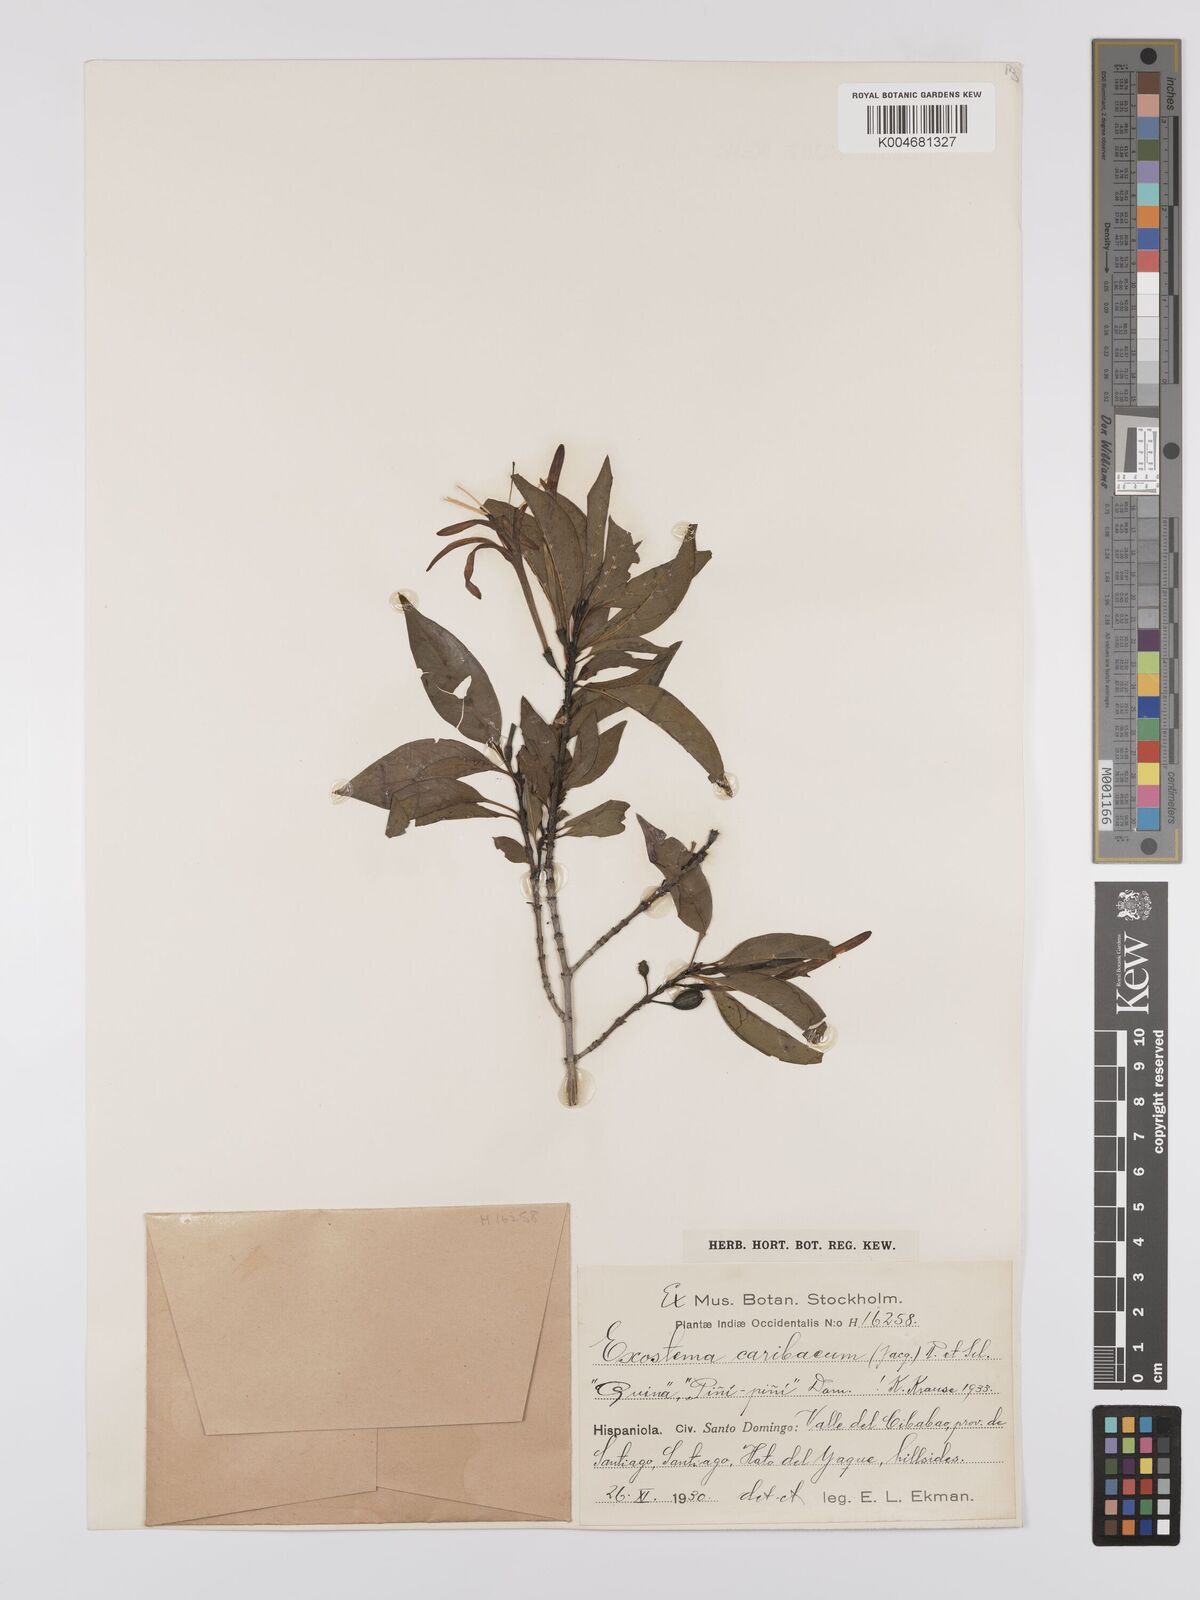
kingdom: Plantae
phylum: Tracheophyta
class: Magnoliopsida
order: Gentianales
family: Rubiaceae
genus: Exostema
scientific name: Exostema caribaeum
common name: Princewood
